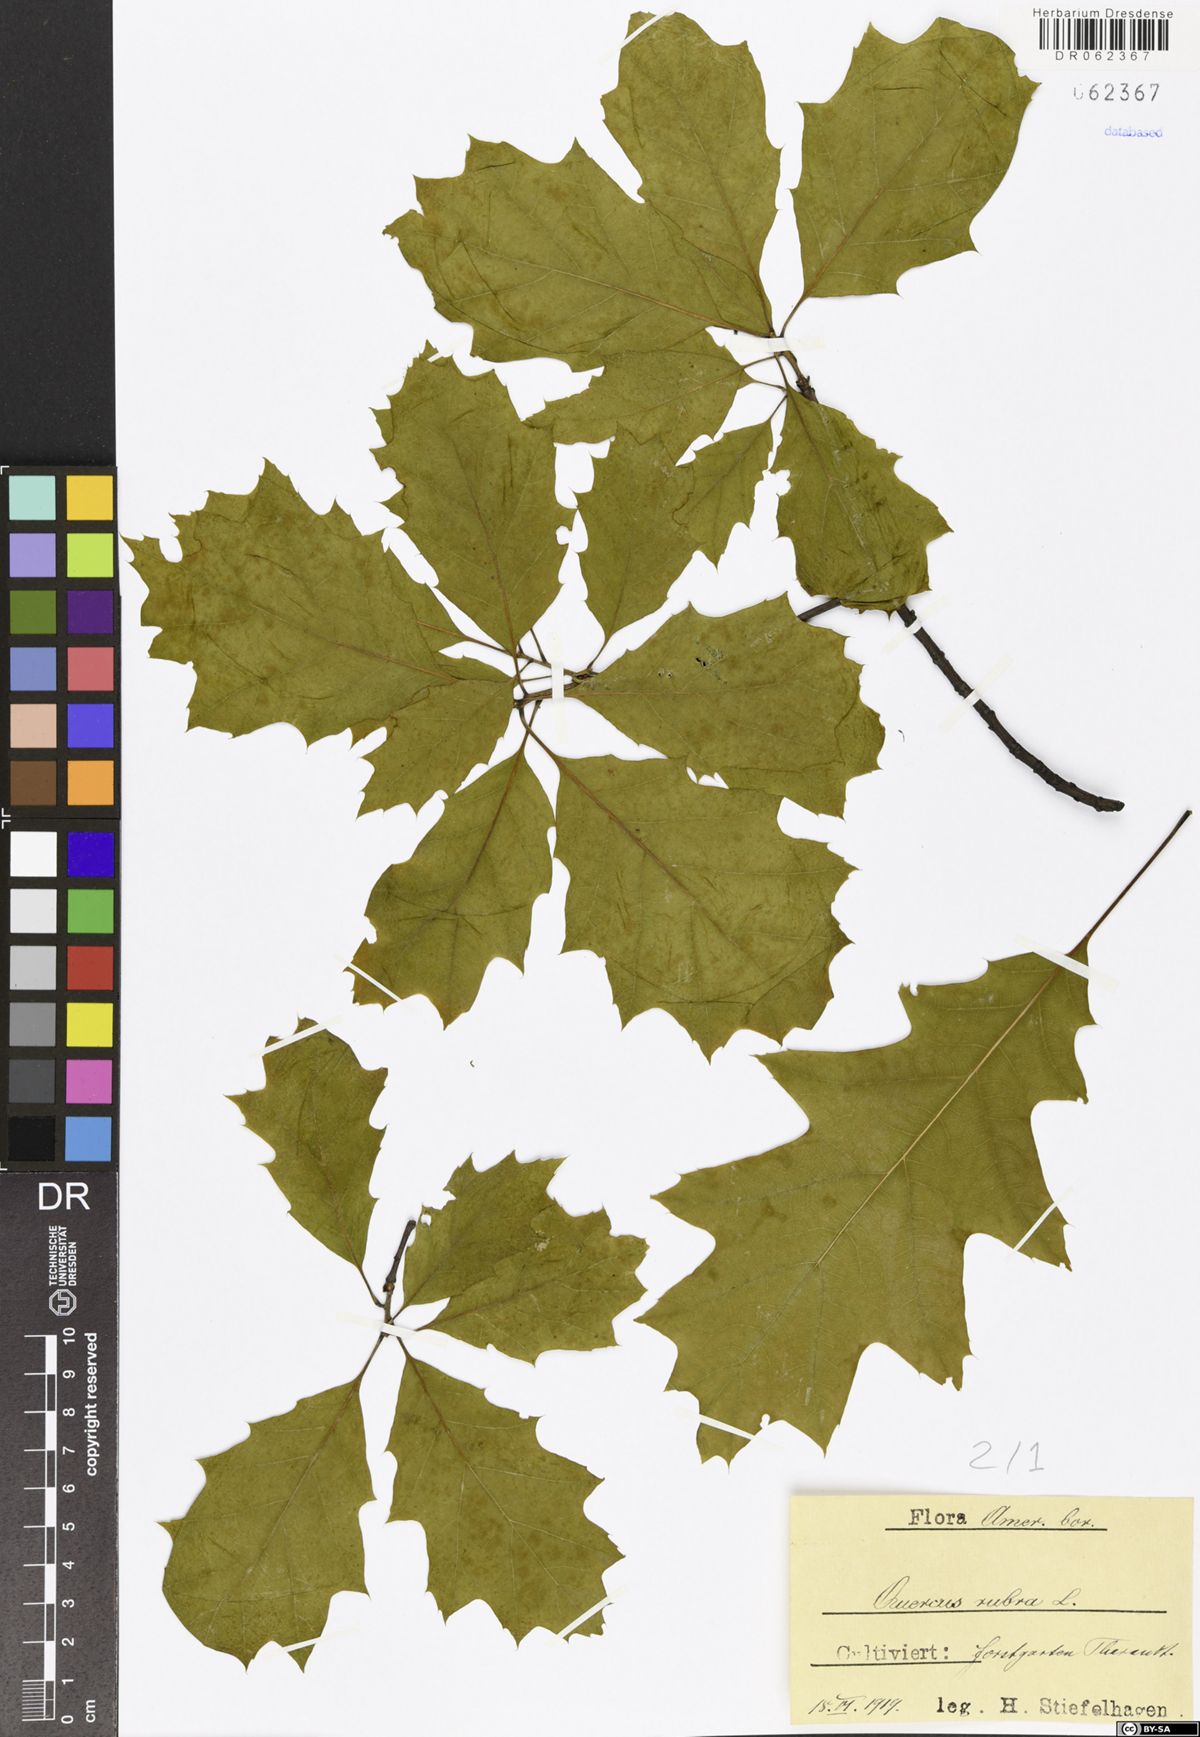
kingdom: Plantae
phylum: Tracheophyta
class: Magnoliopsida
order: Fagales
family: Fagaceae
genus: Quercus
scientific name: Quercus rubra
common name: Red oak
